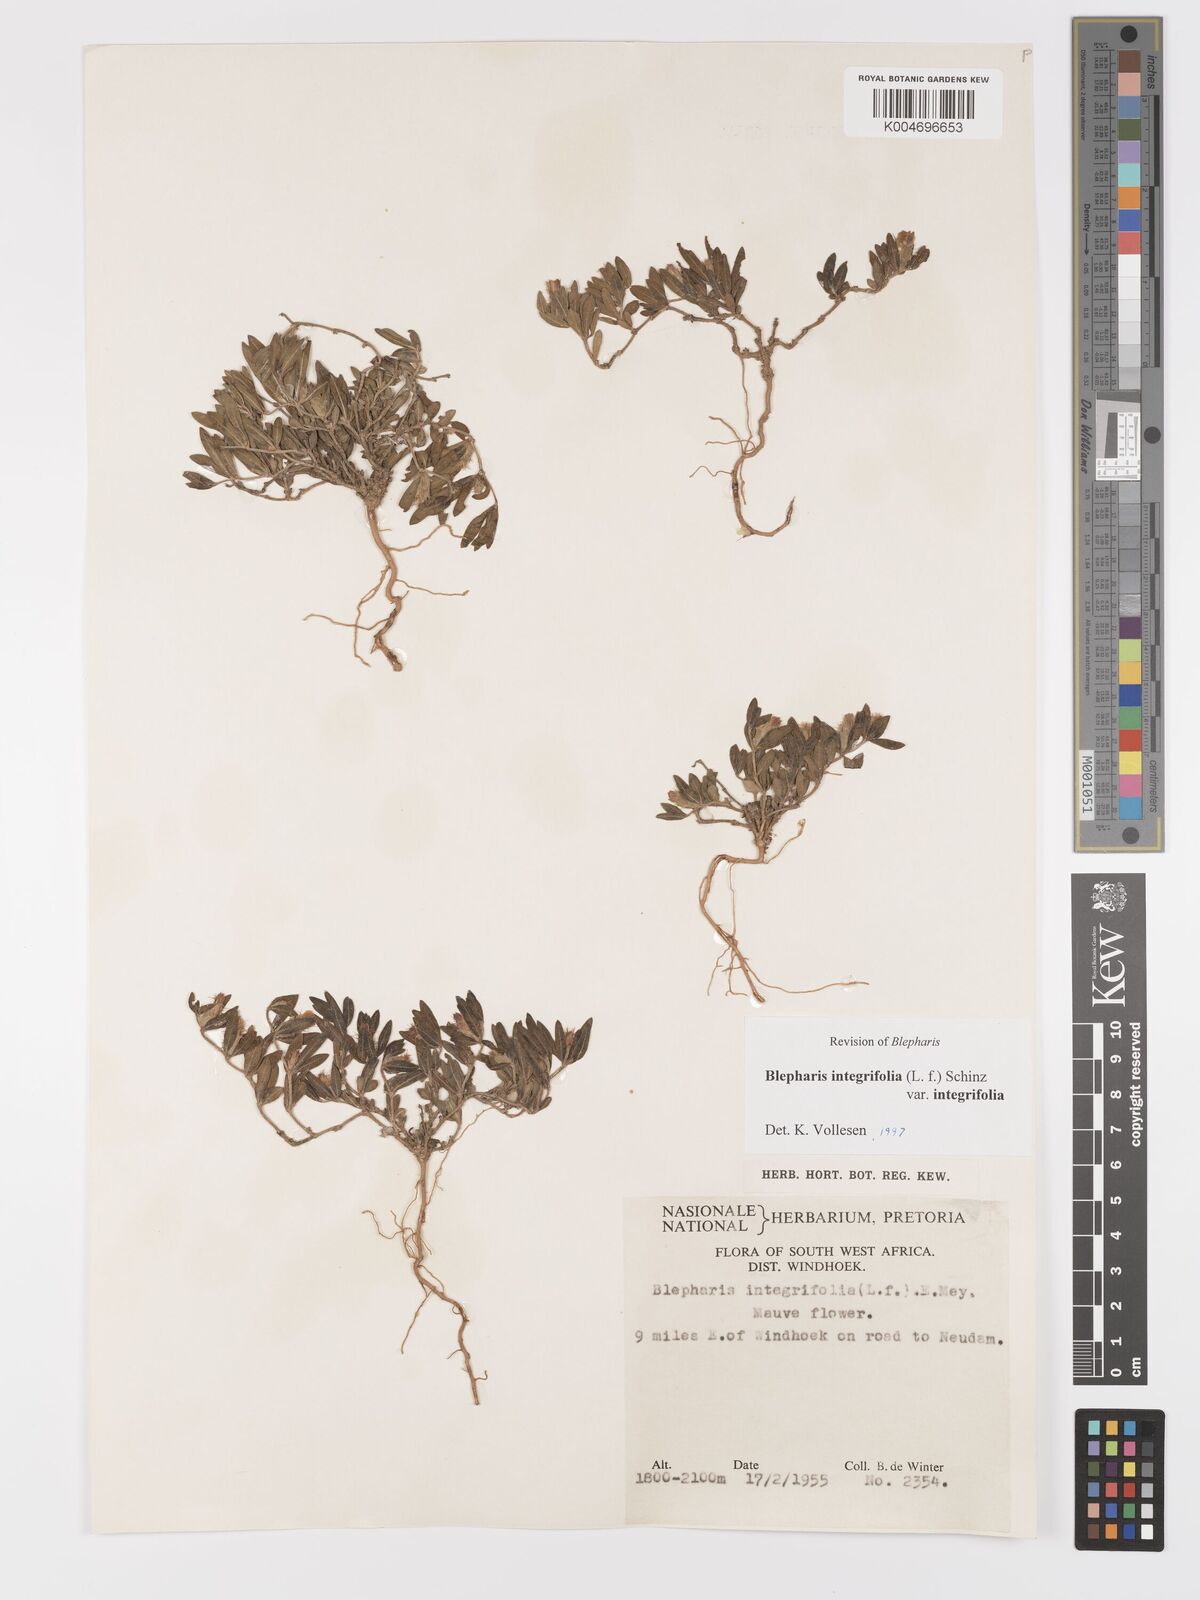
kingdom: Plantae
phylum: Tracheophyta
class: Magnoliopsida
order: Lamiales
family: Acanthaceae
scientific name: Acanthaceae
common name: Acanthaceae
